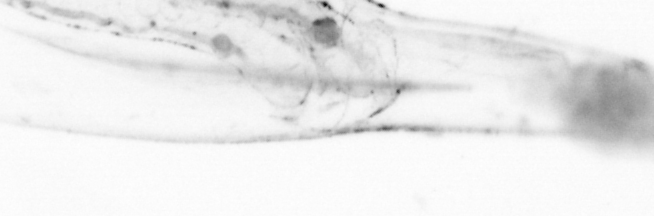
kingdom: Animalia
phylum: Chaetognatha
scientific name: Chaetognatha
